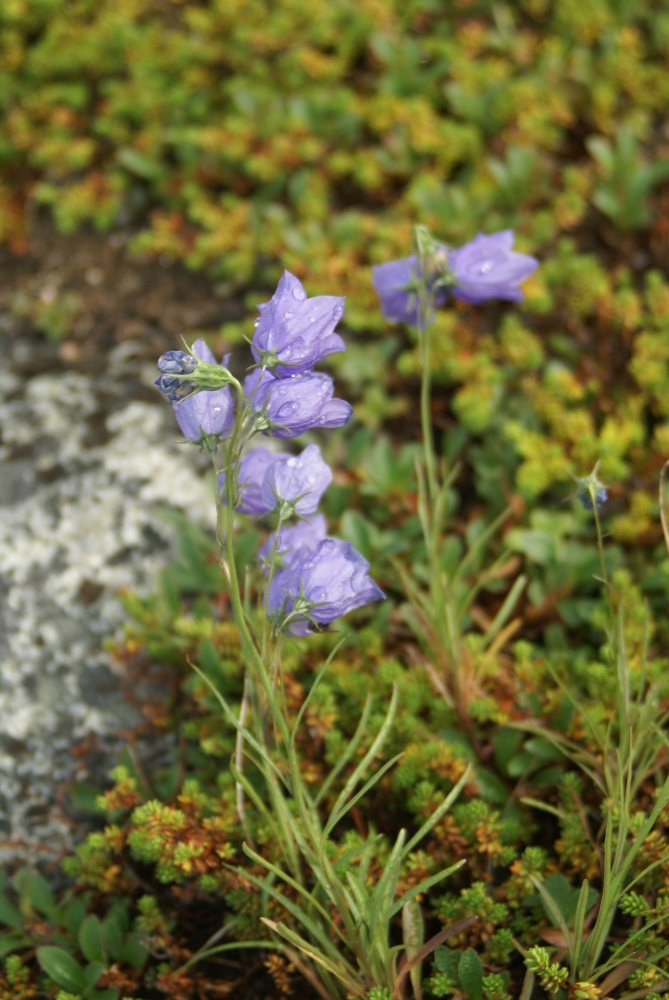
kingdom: Plantae
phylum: Tracheophyta
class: Magnoliopsida
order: Asterales
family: Campanulaceae
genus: Campanula
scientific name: Campanula rotundifolia
